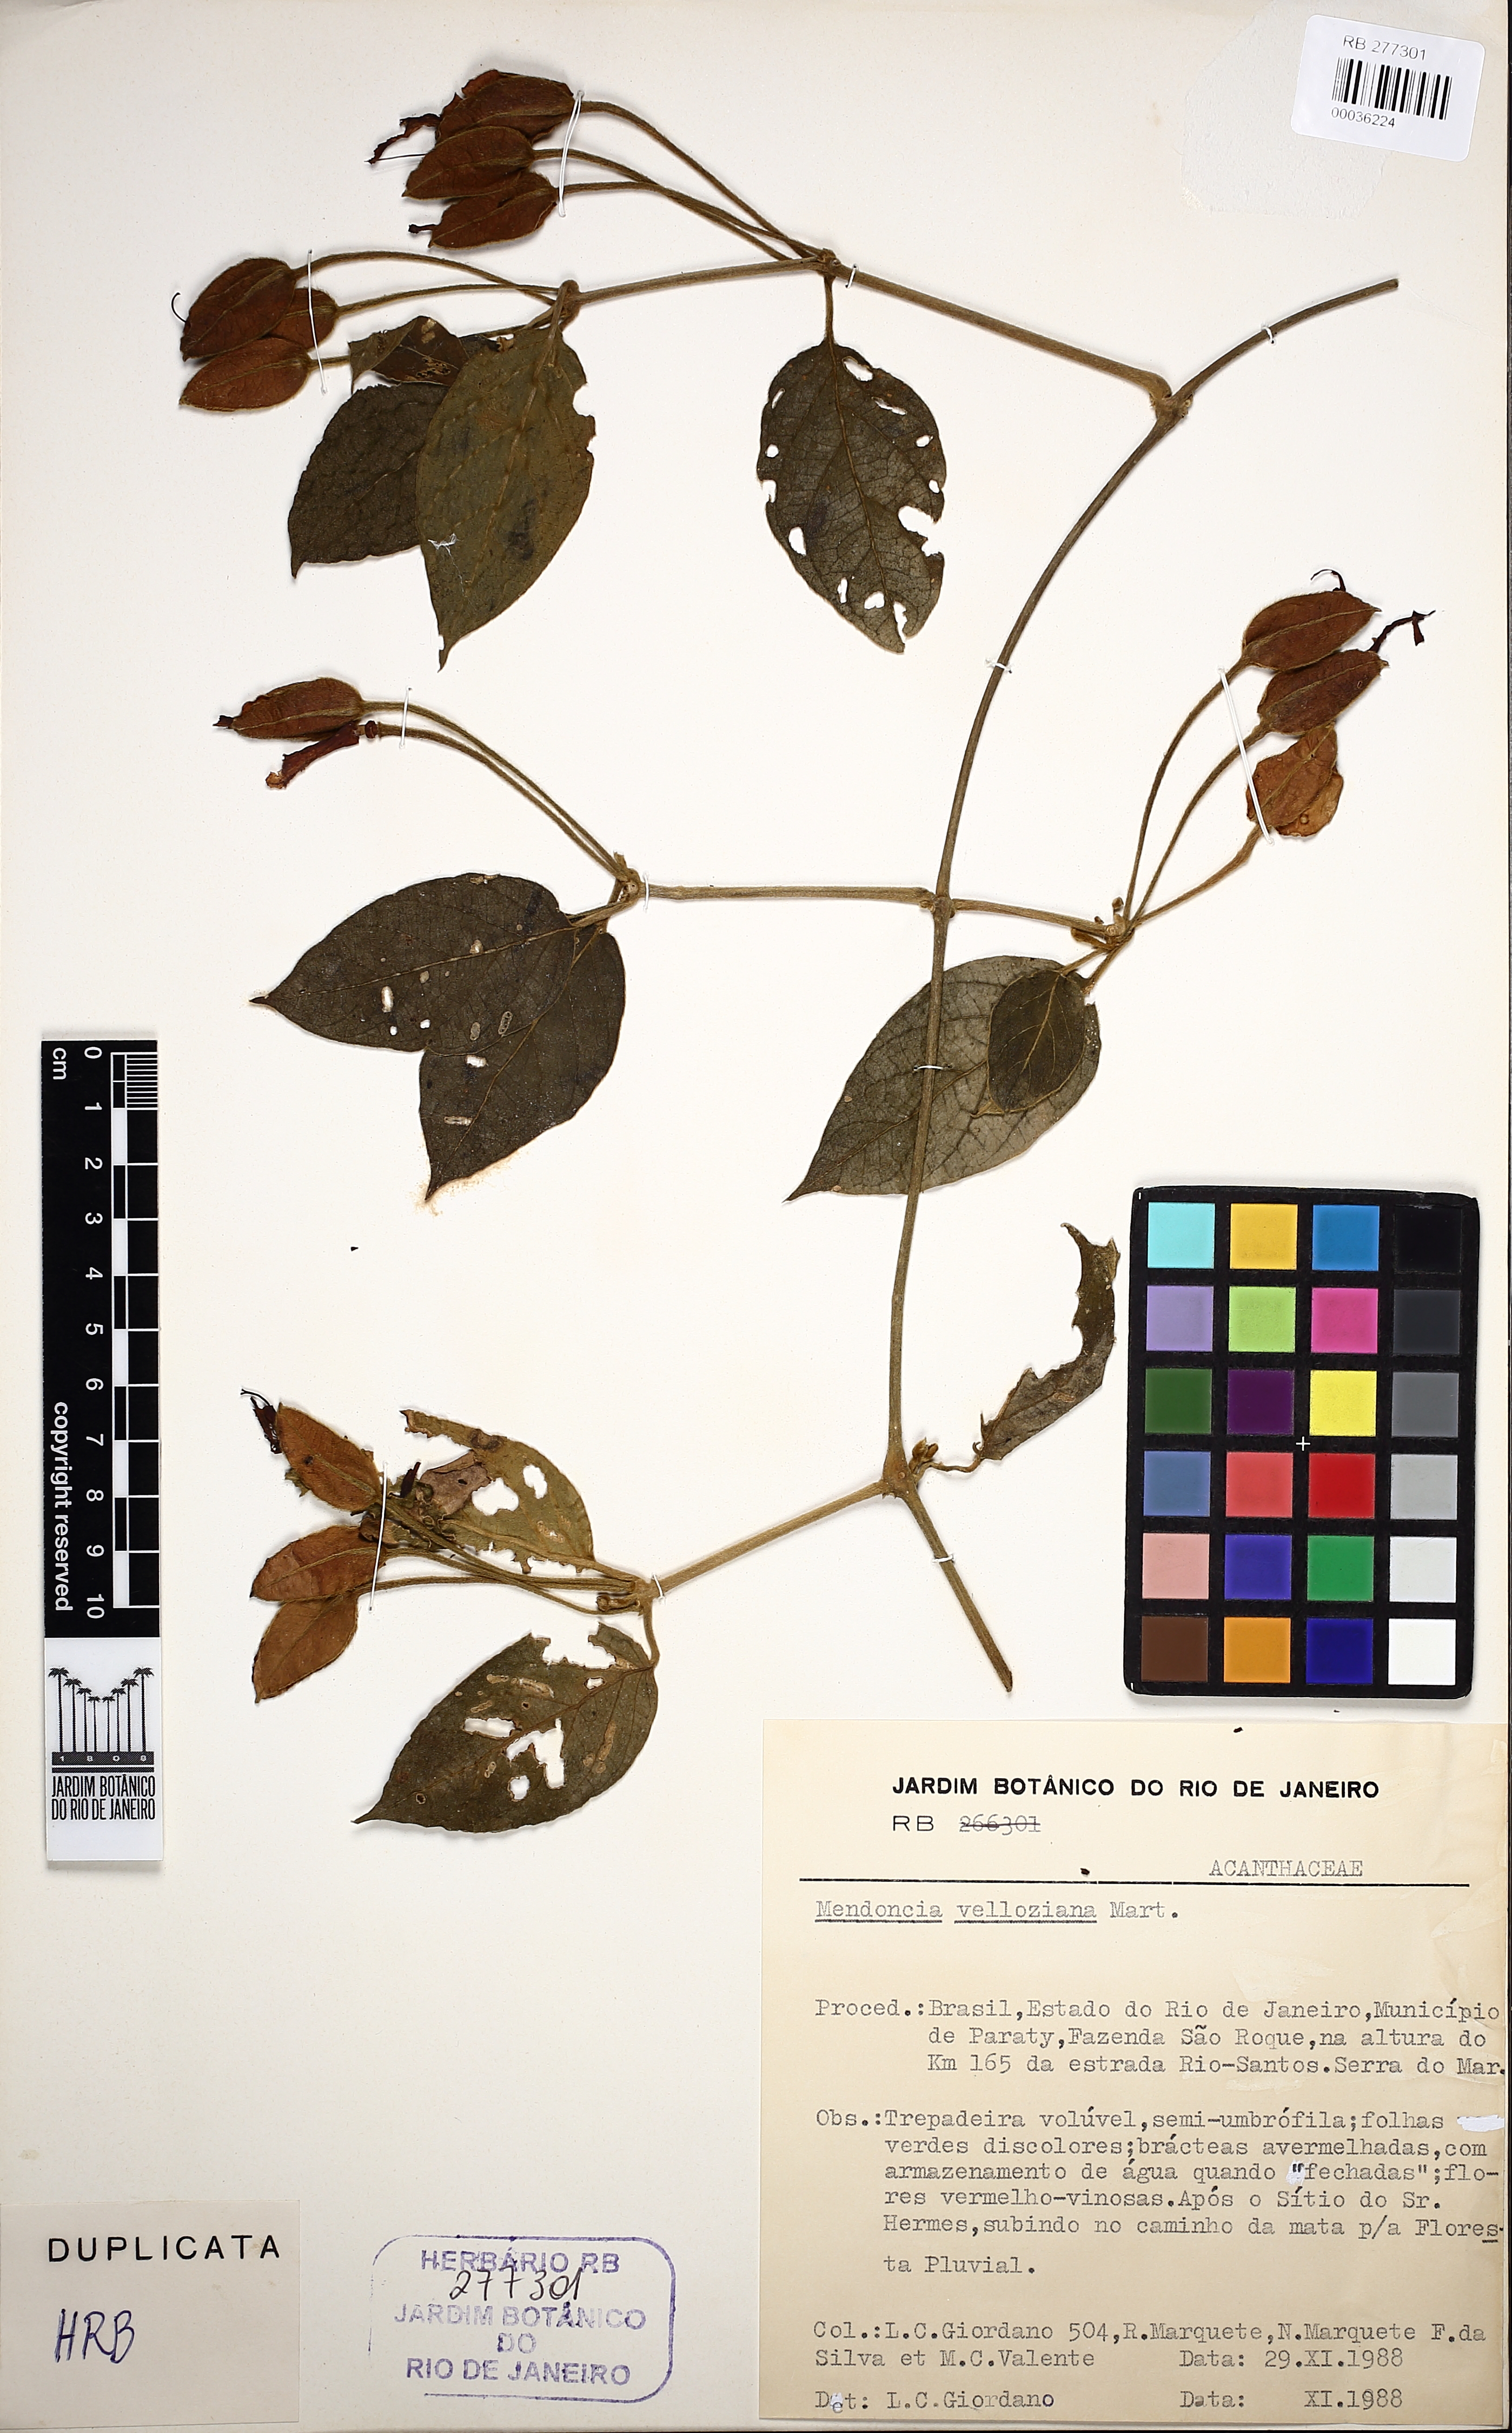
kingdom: Plantae
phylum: Tracheophyta
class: Magnoliopsida
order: Lamiales
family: Acanthaceae
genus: Mendoncia
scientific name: Mendoncia velloziana
